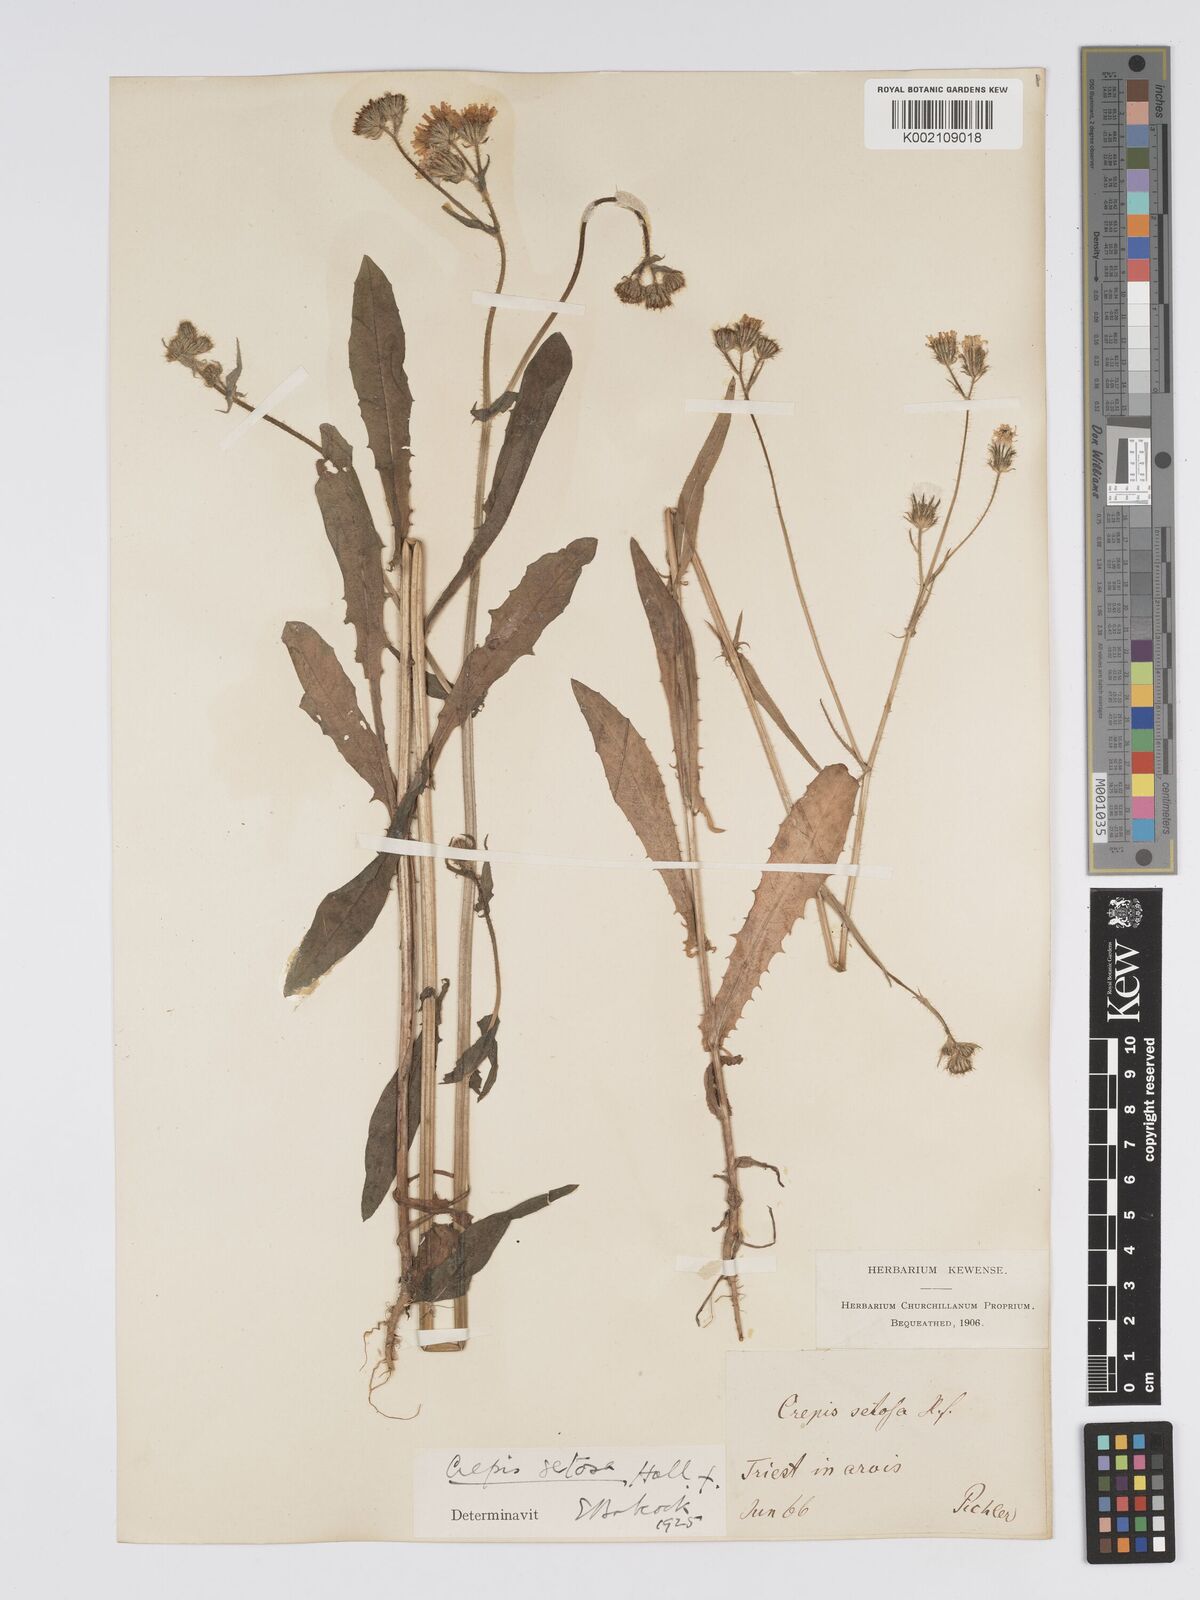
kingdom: Plantae
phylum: Tracheophyta
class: Magnoliopsida
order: Asterales
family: Asteraceae
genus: Crepis
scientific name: Crepis setosa
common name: Bristly hawk's-beard
